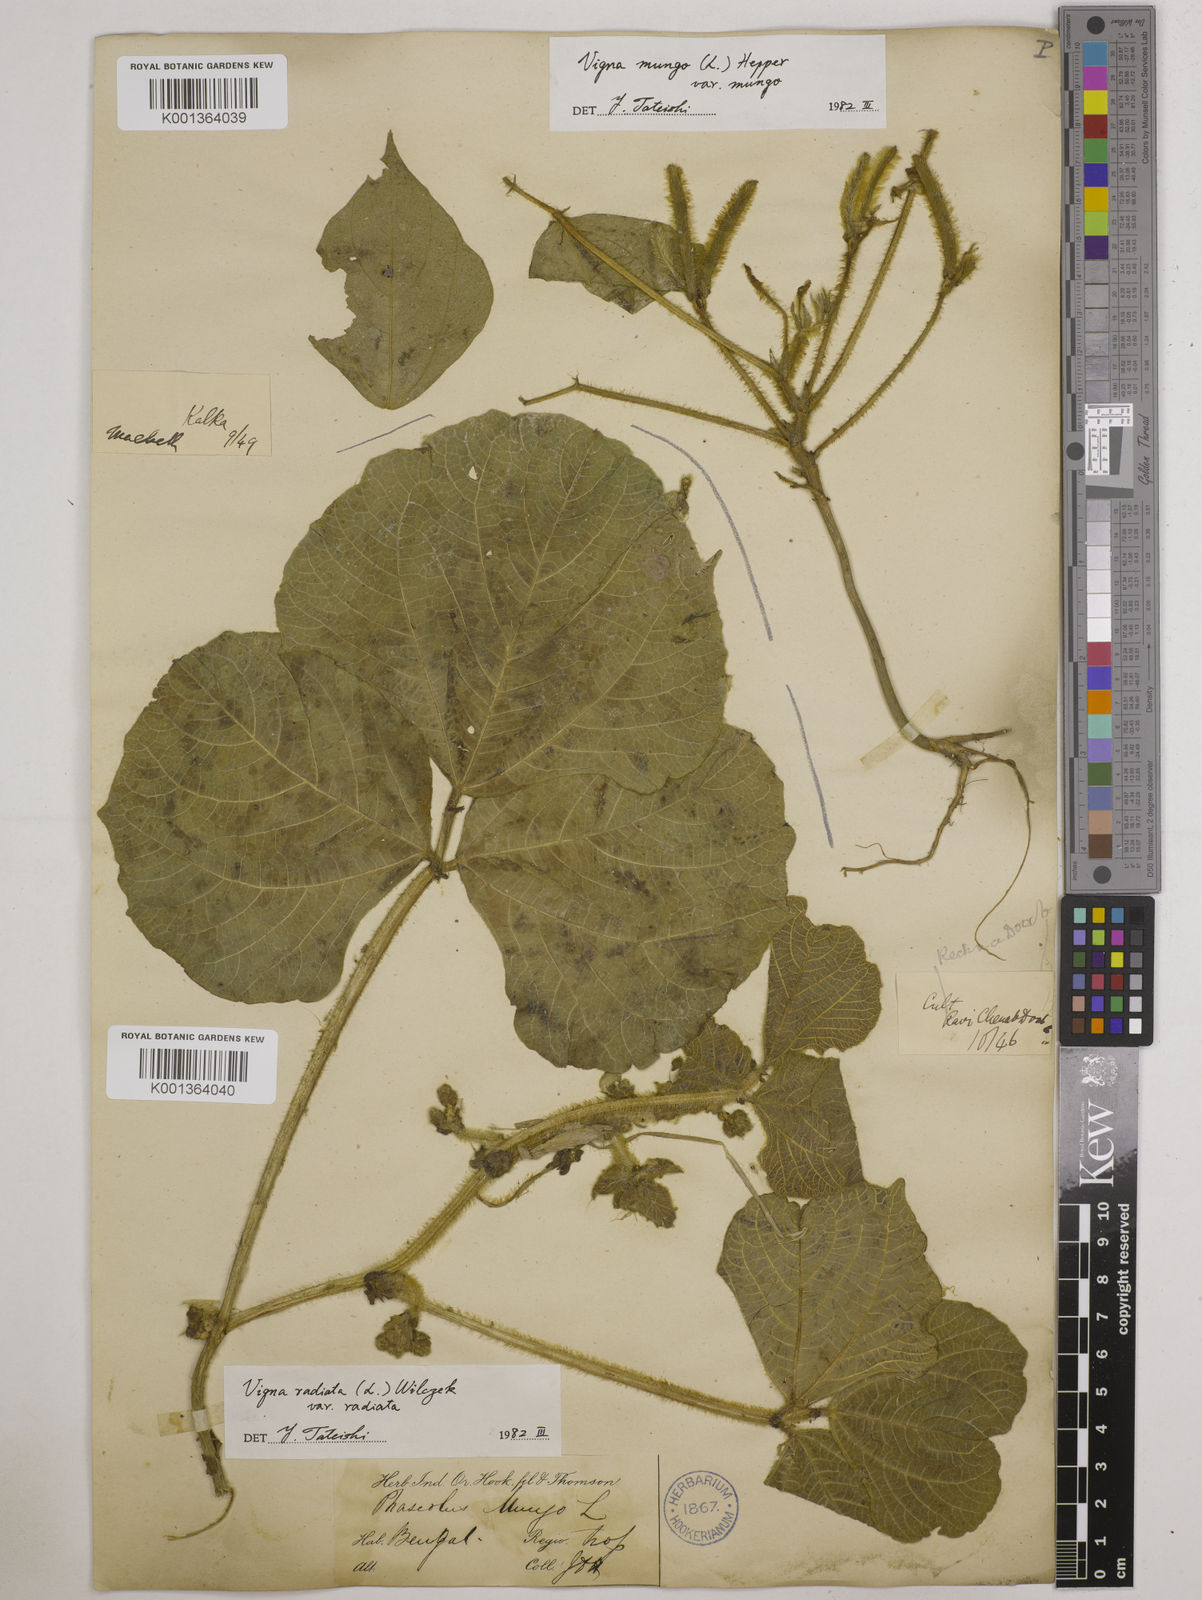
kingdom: Plantae
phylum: Tracheophyta
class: Magnoliopsida
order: Fabales
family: Fabaceae
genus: Vigna
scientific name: Vigna radiata
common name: Mung-bean
